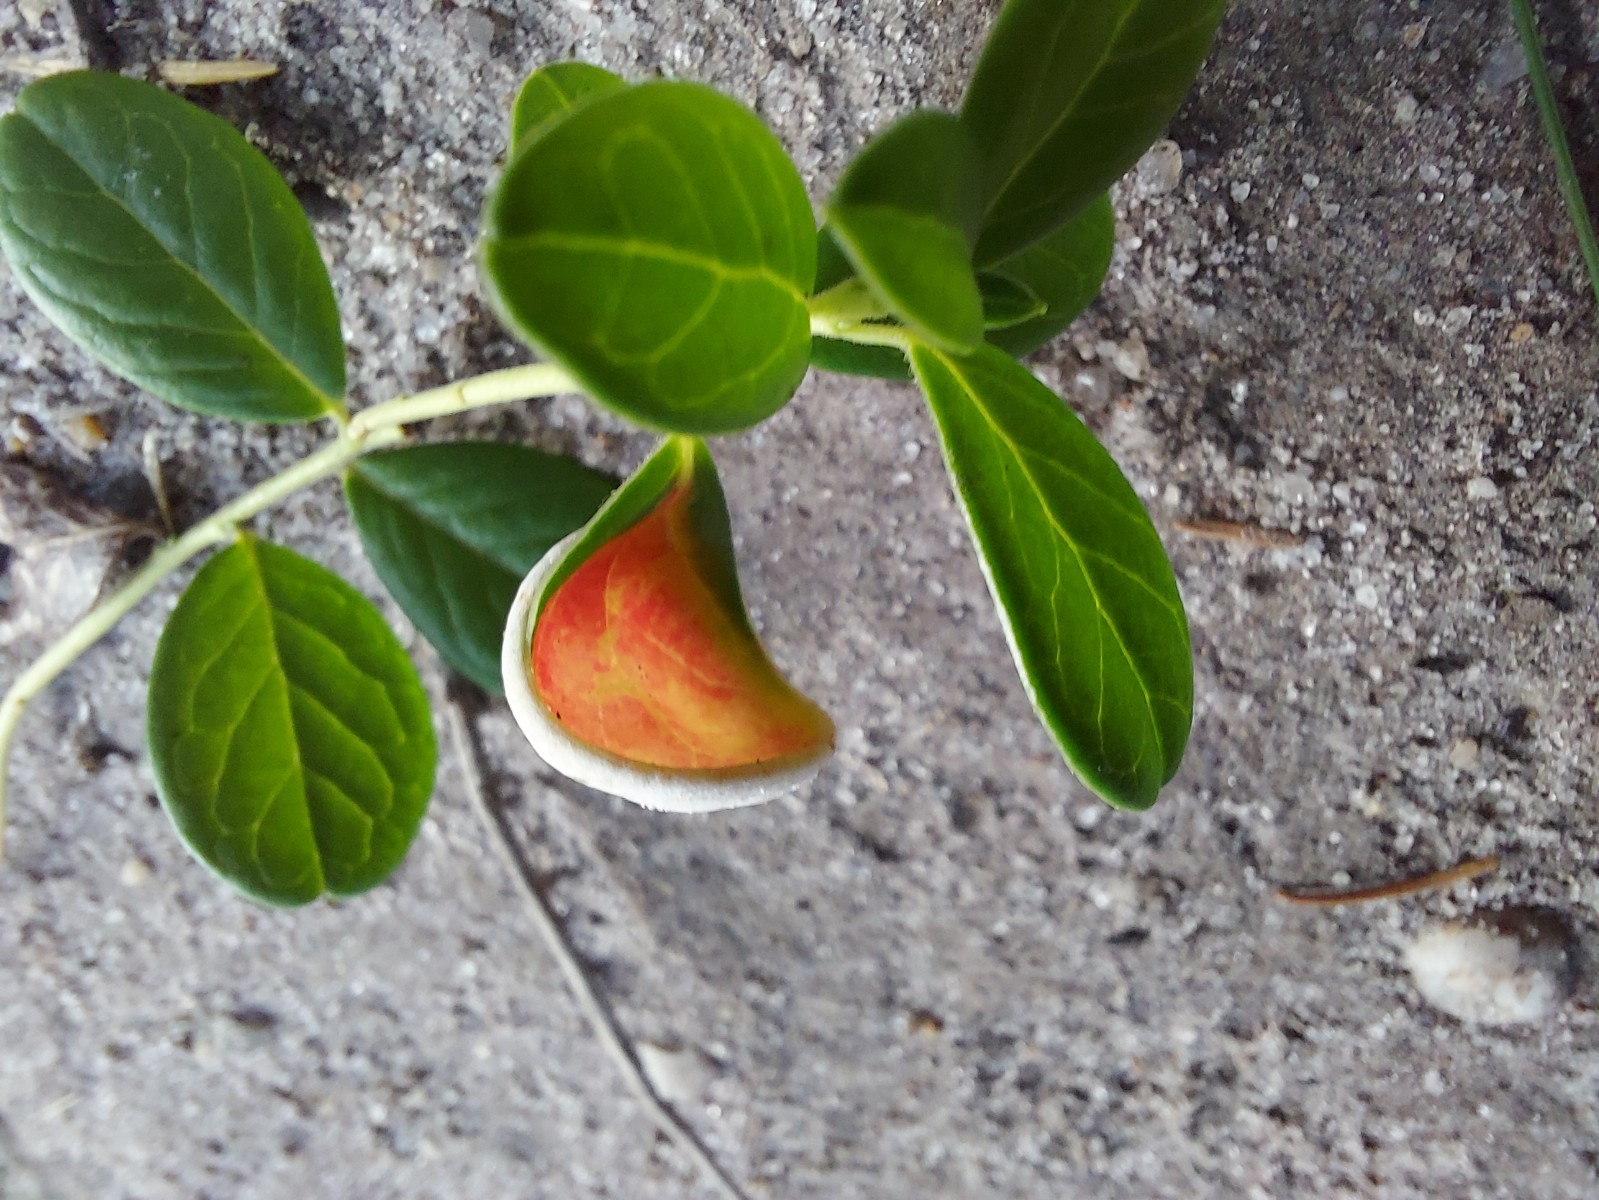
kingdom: Fungi
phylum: Basidiomycota
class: Exobasidiomycetes
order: Exobasidiales
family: Exobasidiaceae
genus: Exobasidium
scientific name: Exobasidium vaccinii
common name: tyttebærblad-bøllesvamp
